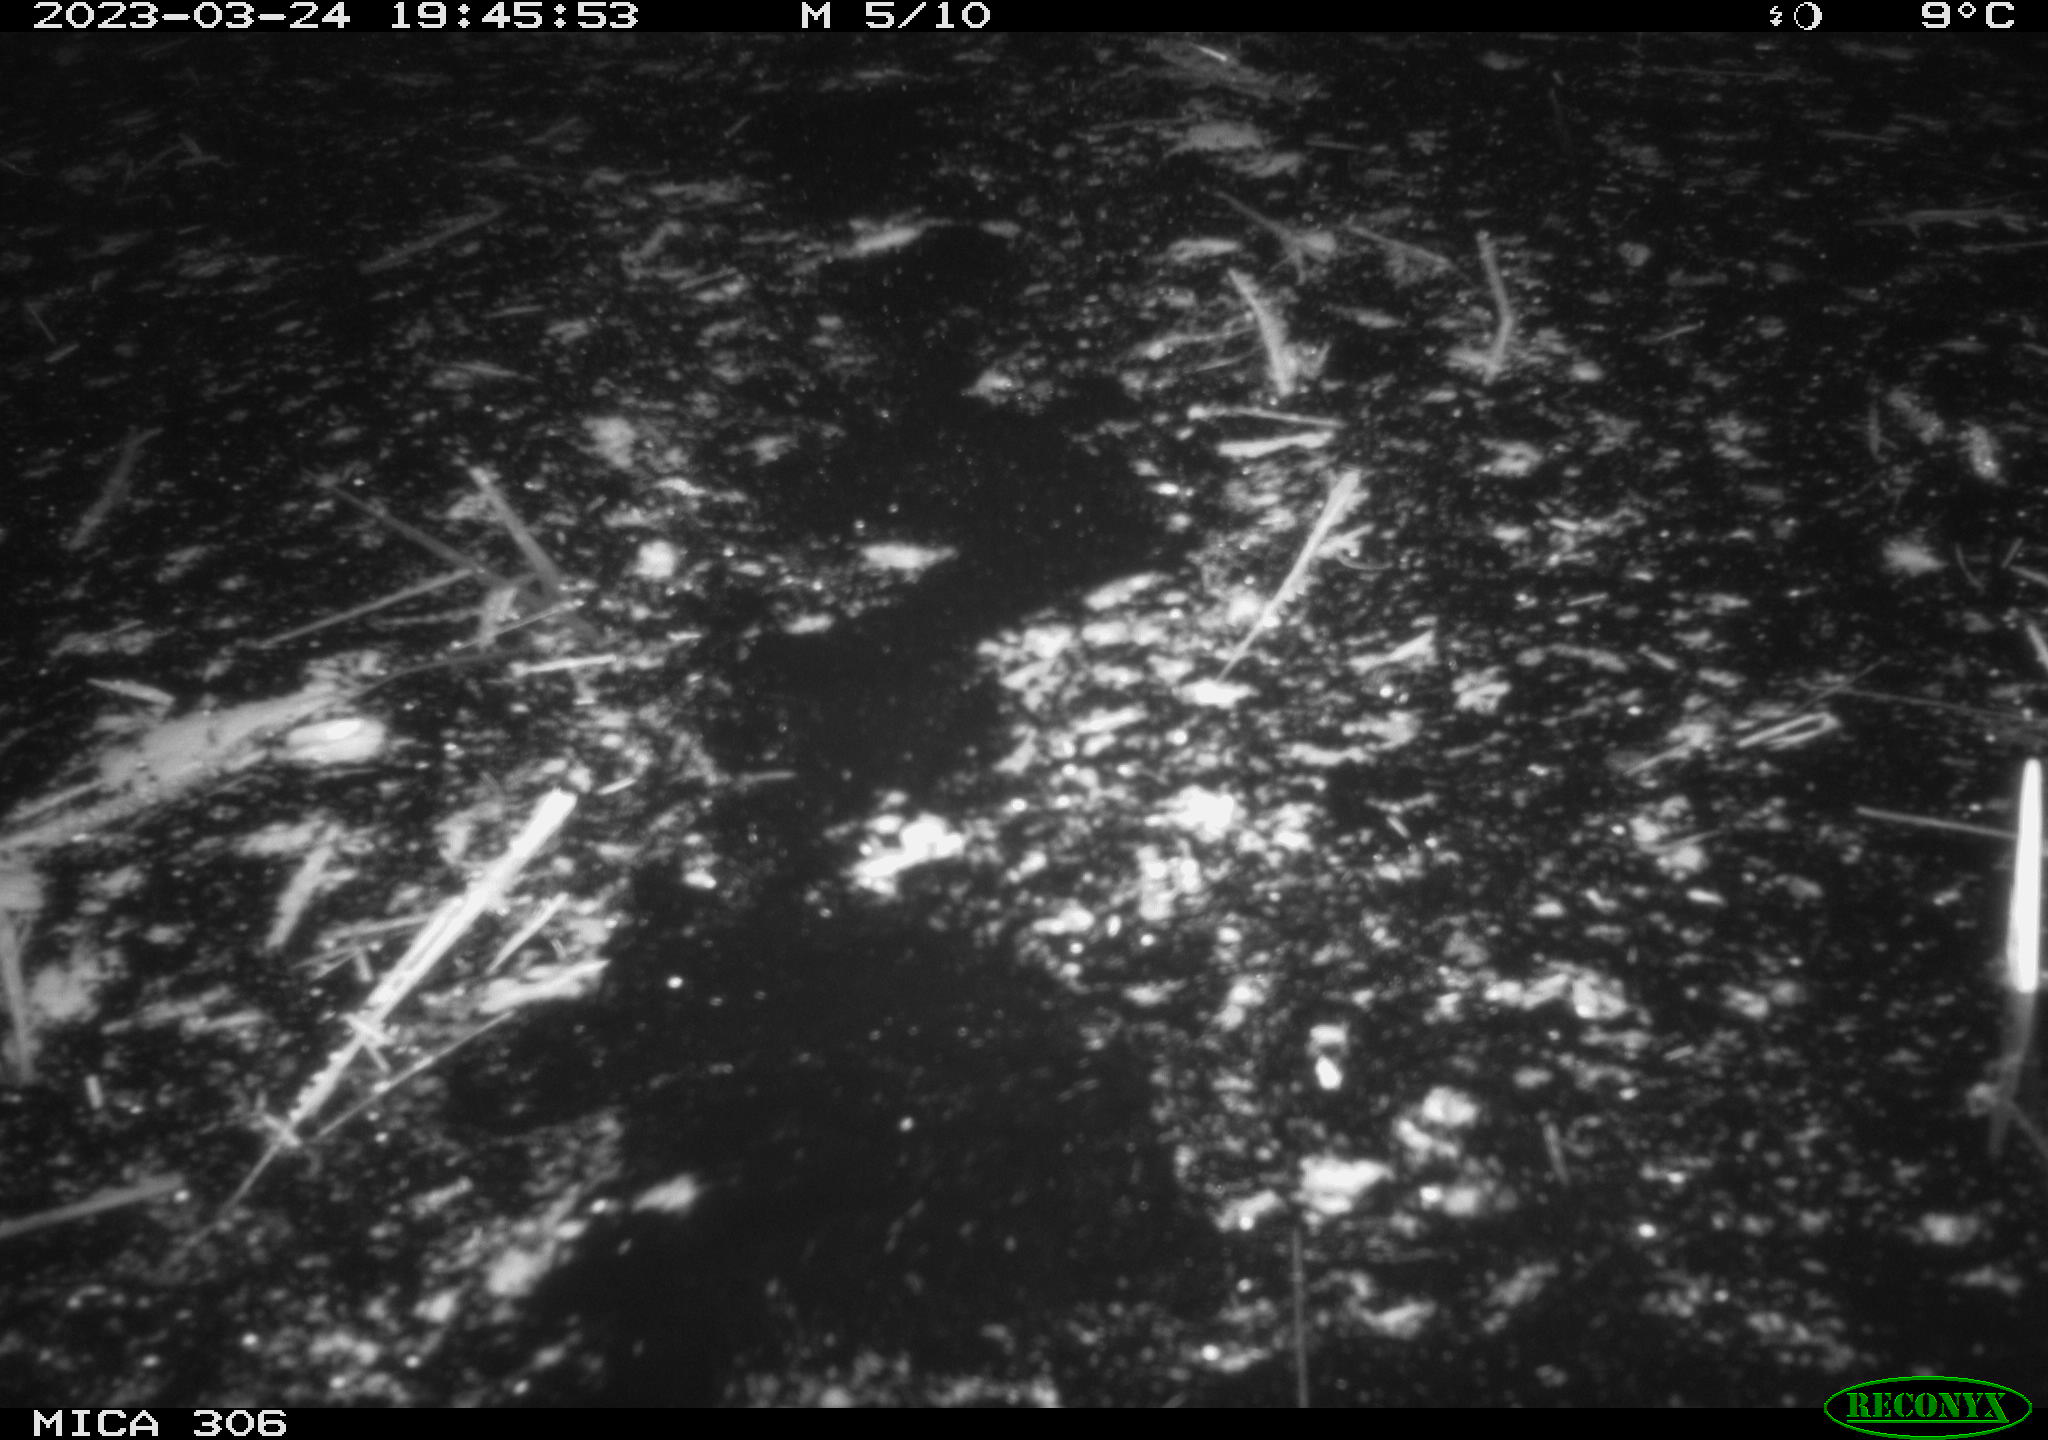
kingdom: Animalia
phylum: Chordata
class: Mammalia
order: Rodentia
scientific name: Rodentia
